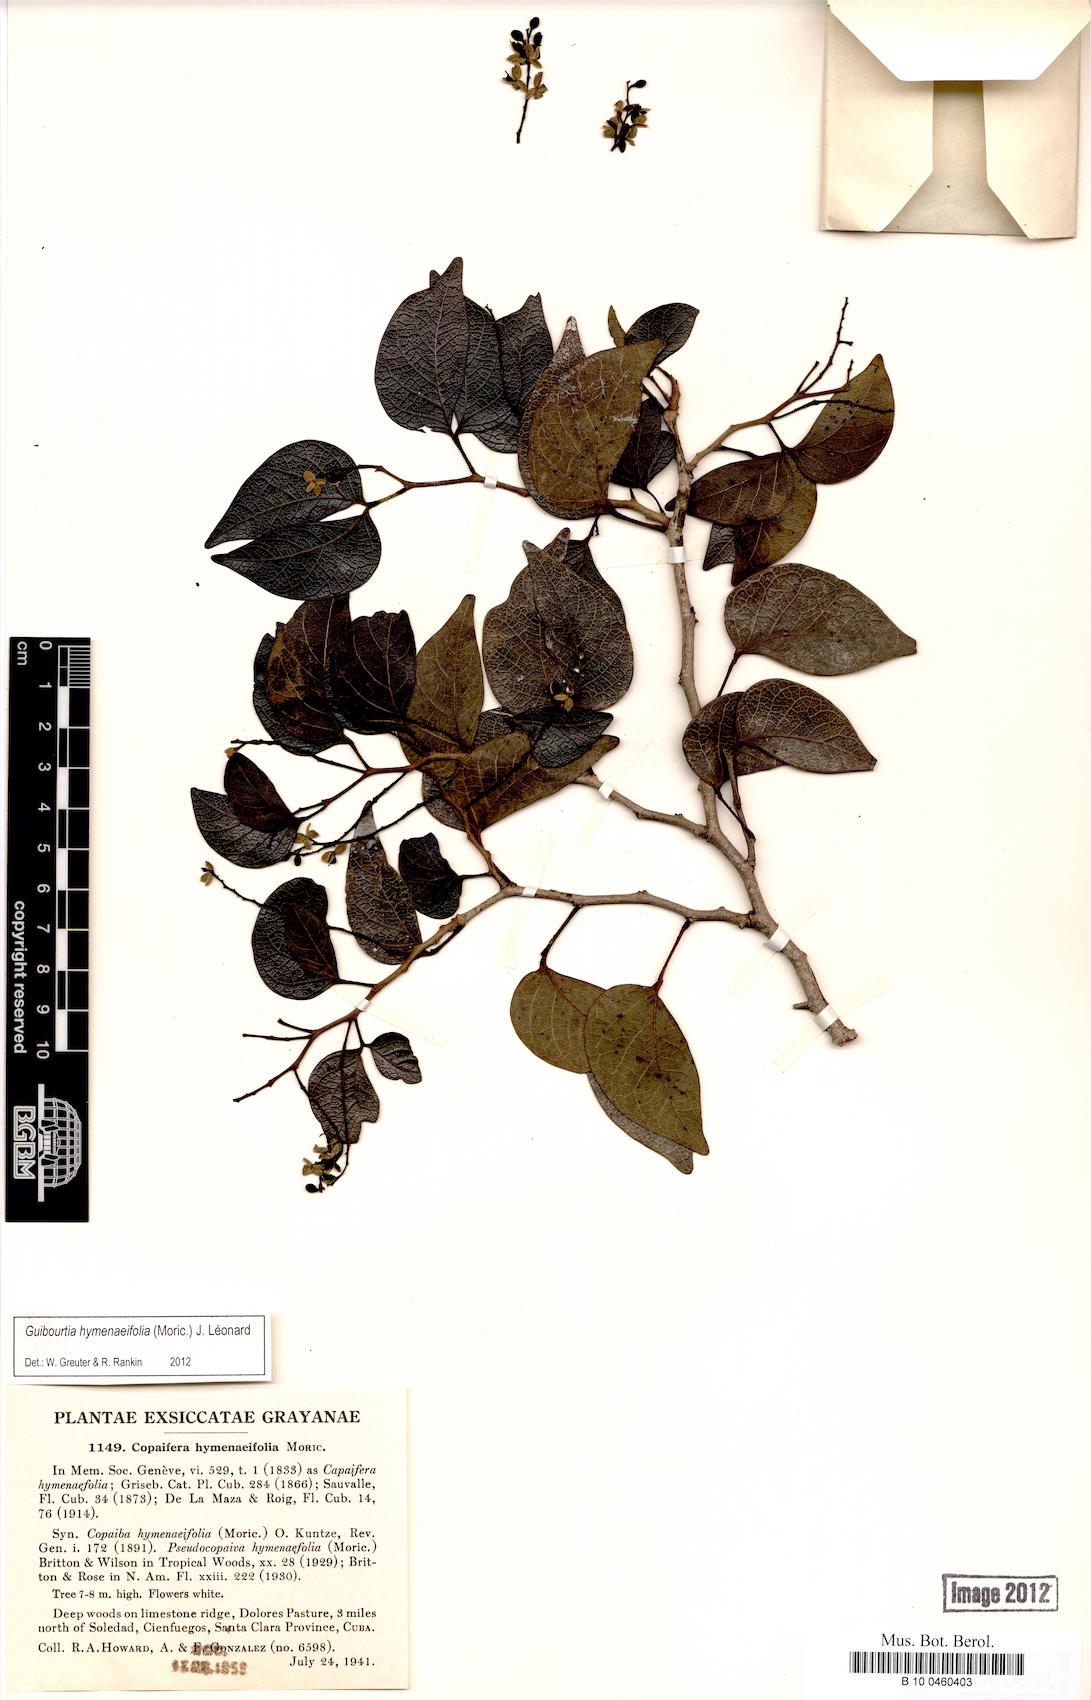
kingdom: Plantae
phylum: Tracheophyta
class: Magnoliopsida
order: Fabales
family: Fabaceae
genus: Guibourtia
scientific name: Guibourtia hymenifolia
